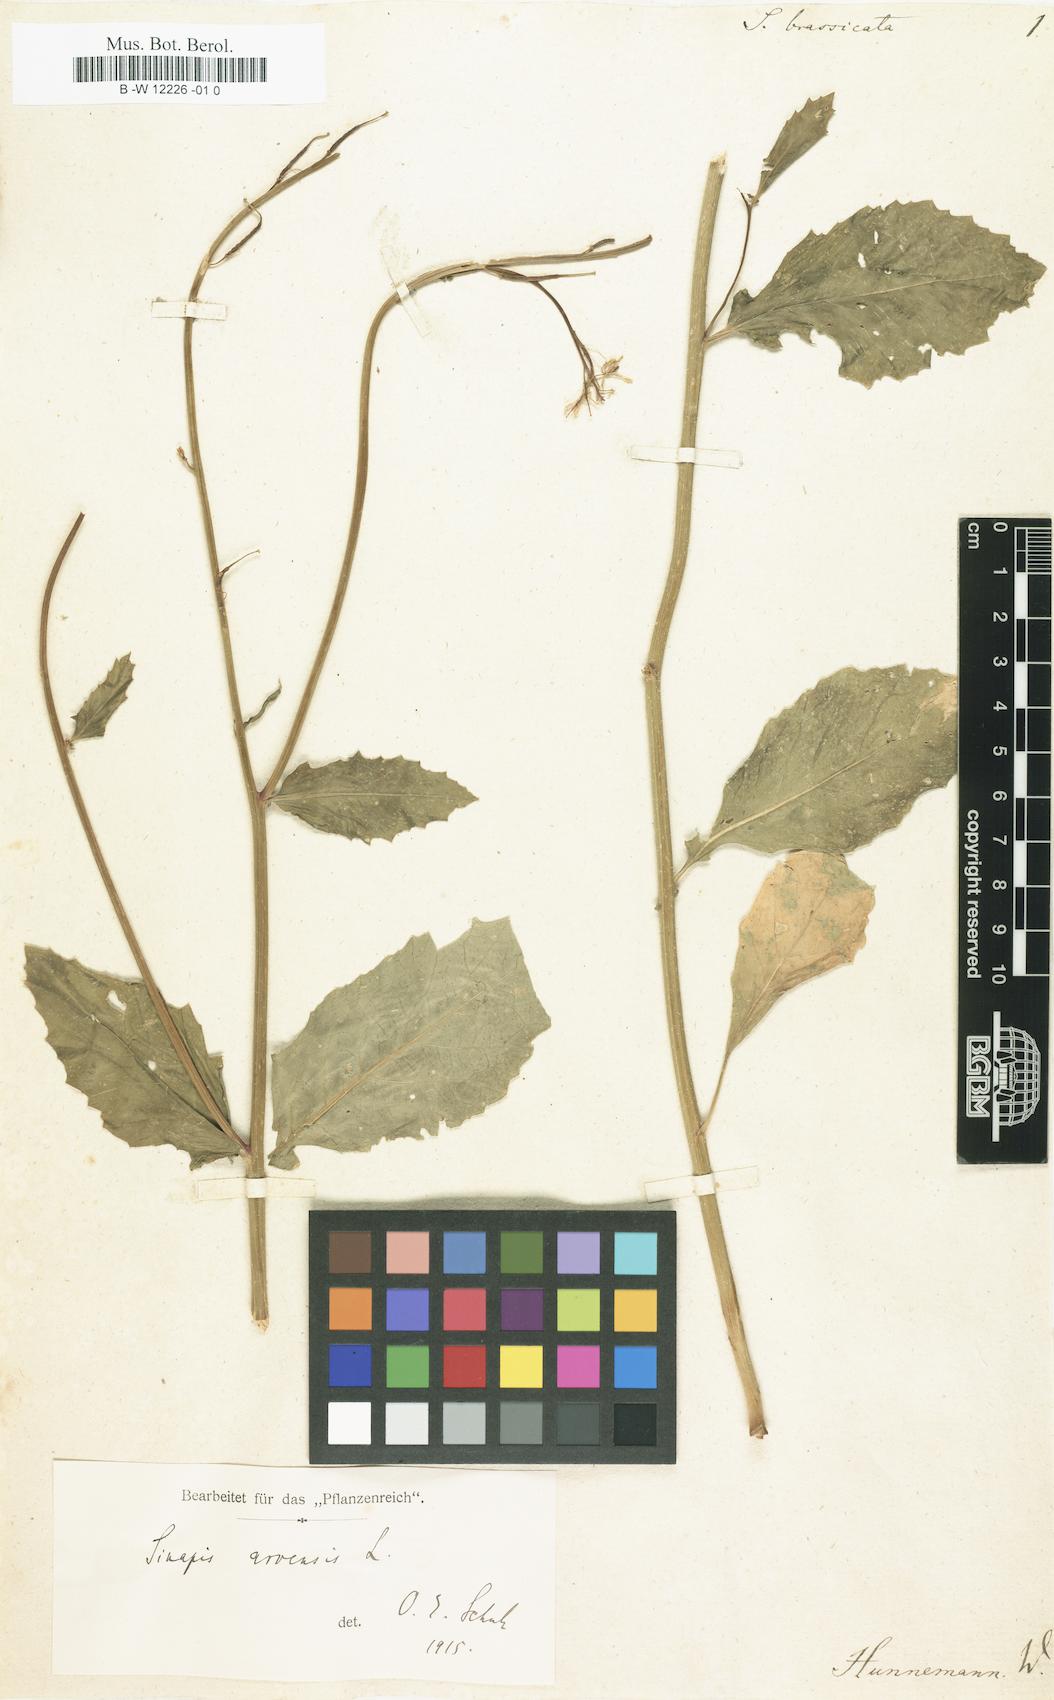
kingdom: Plantae
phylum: Tracheophyta
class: Magnoliopsida
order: Brassicales
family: Brassicaceae
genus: Brassica
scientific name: Brassica
